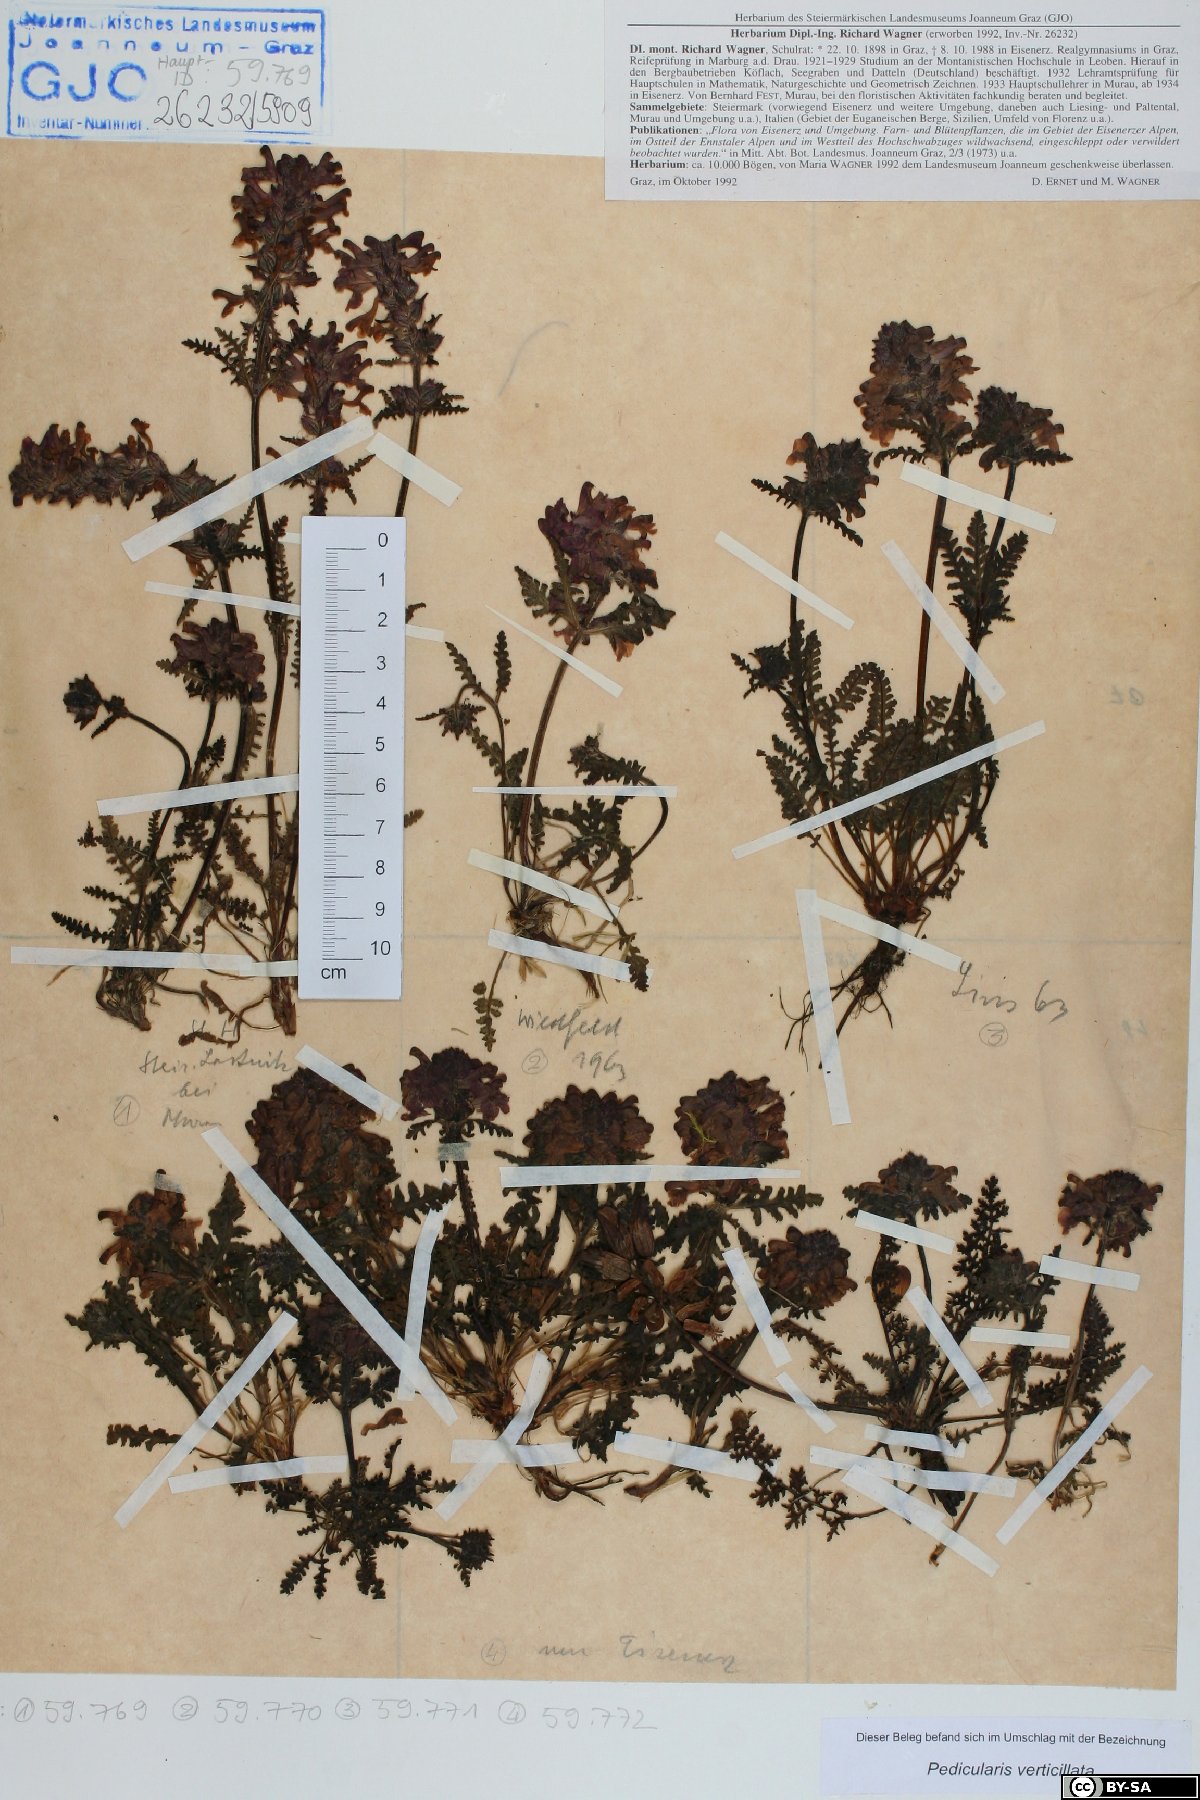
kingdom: Plantae
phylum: Tracheophyta
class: Magnoliopsida
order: Lamiales
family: Orobanchaceae
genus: Pedicularis
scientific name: Pedicularis verticillata
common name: Whorled lousewort
